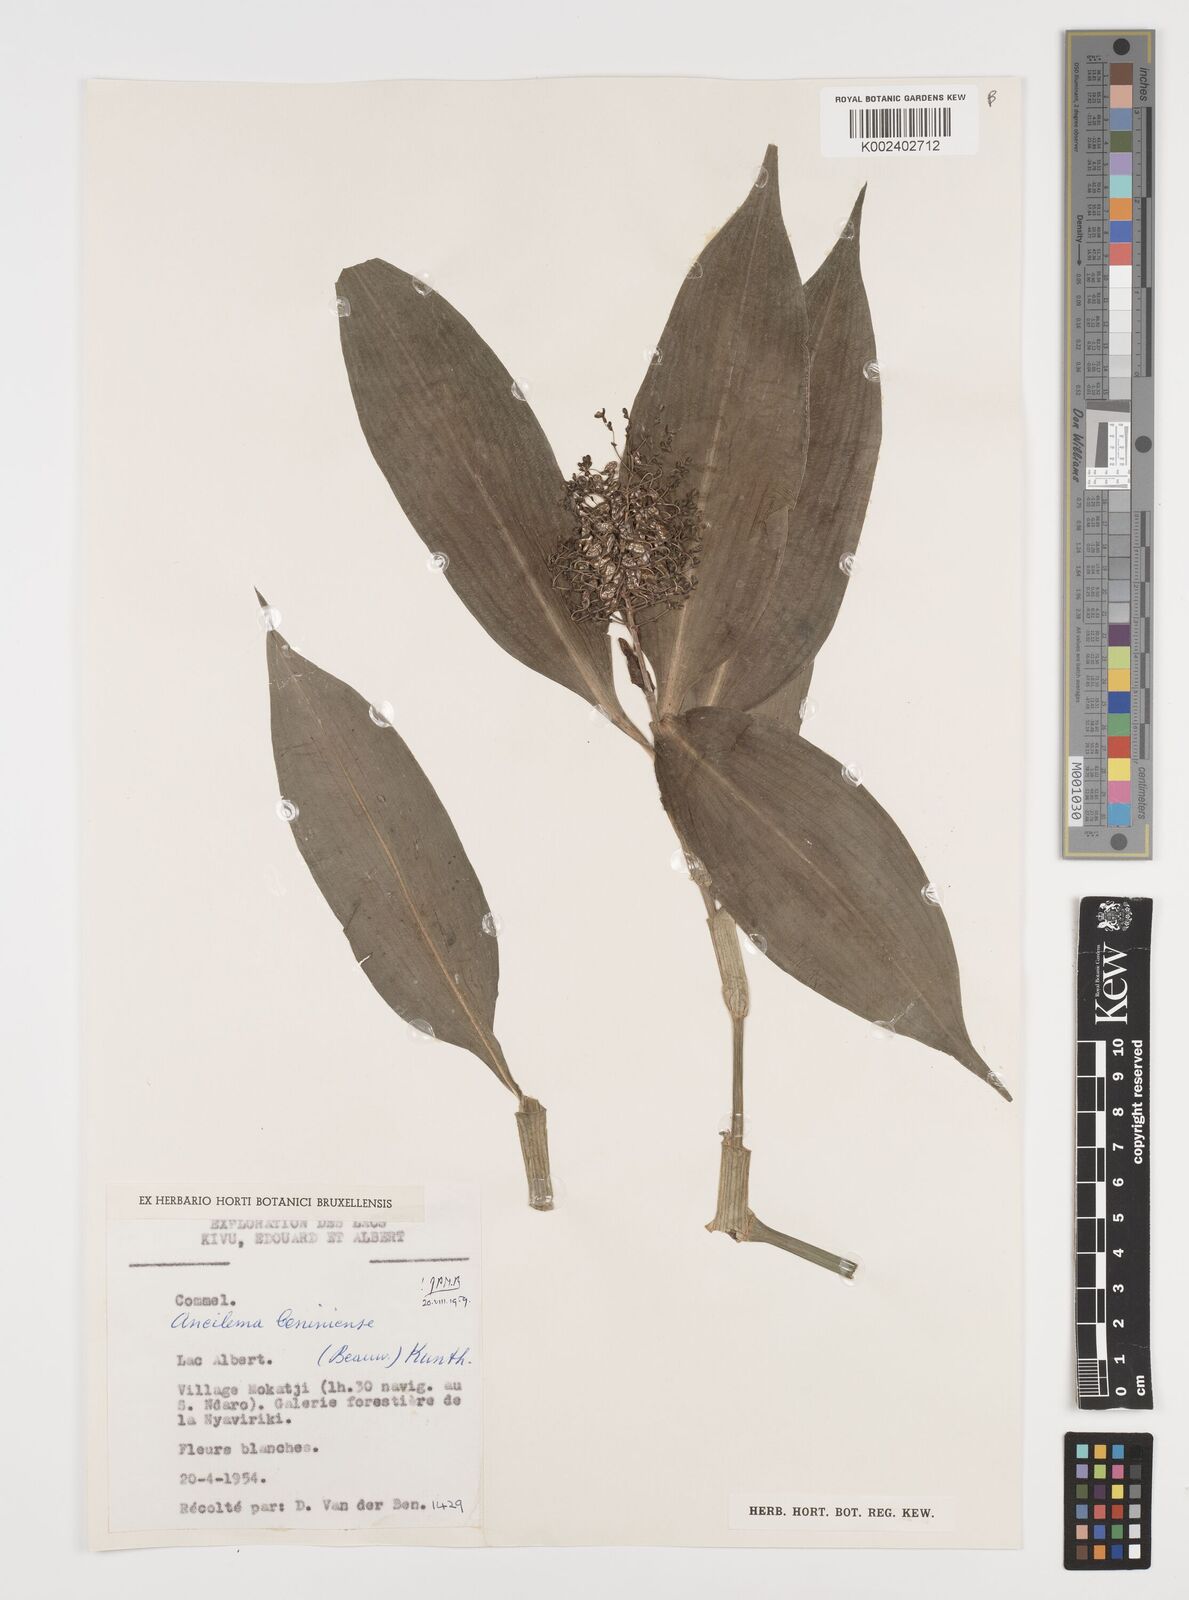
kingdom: Plantae
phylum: Tracheophyta
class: Liliopsida
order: Commelinales
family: Commelinaceae
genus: Aneilema
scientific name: Aneilema beniniense
